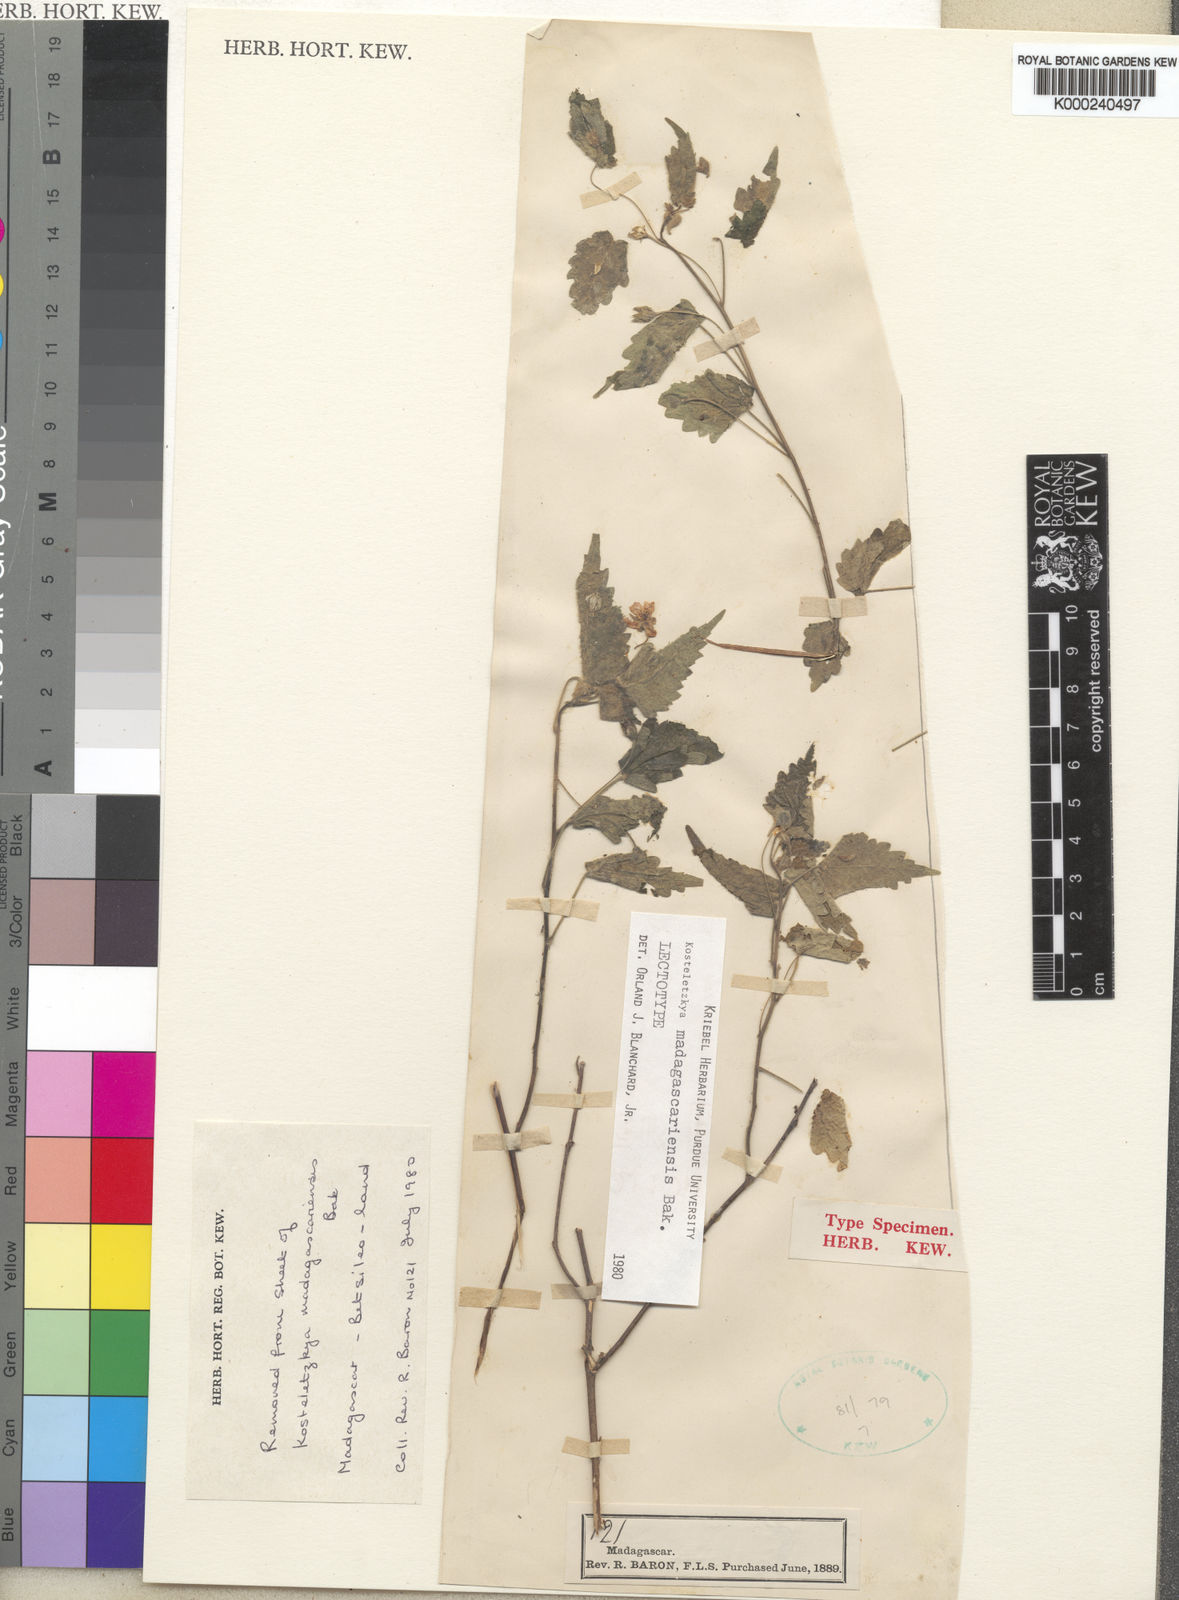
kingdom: Plantae
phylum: Tracheophyta
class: Magnoliopsida
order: Malvales
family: Malvaceae
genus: Perrierophytum
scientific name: Perrierophytum madagascariense
